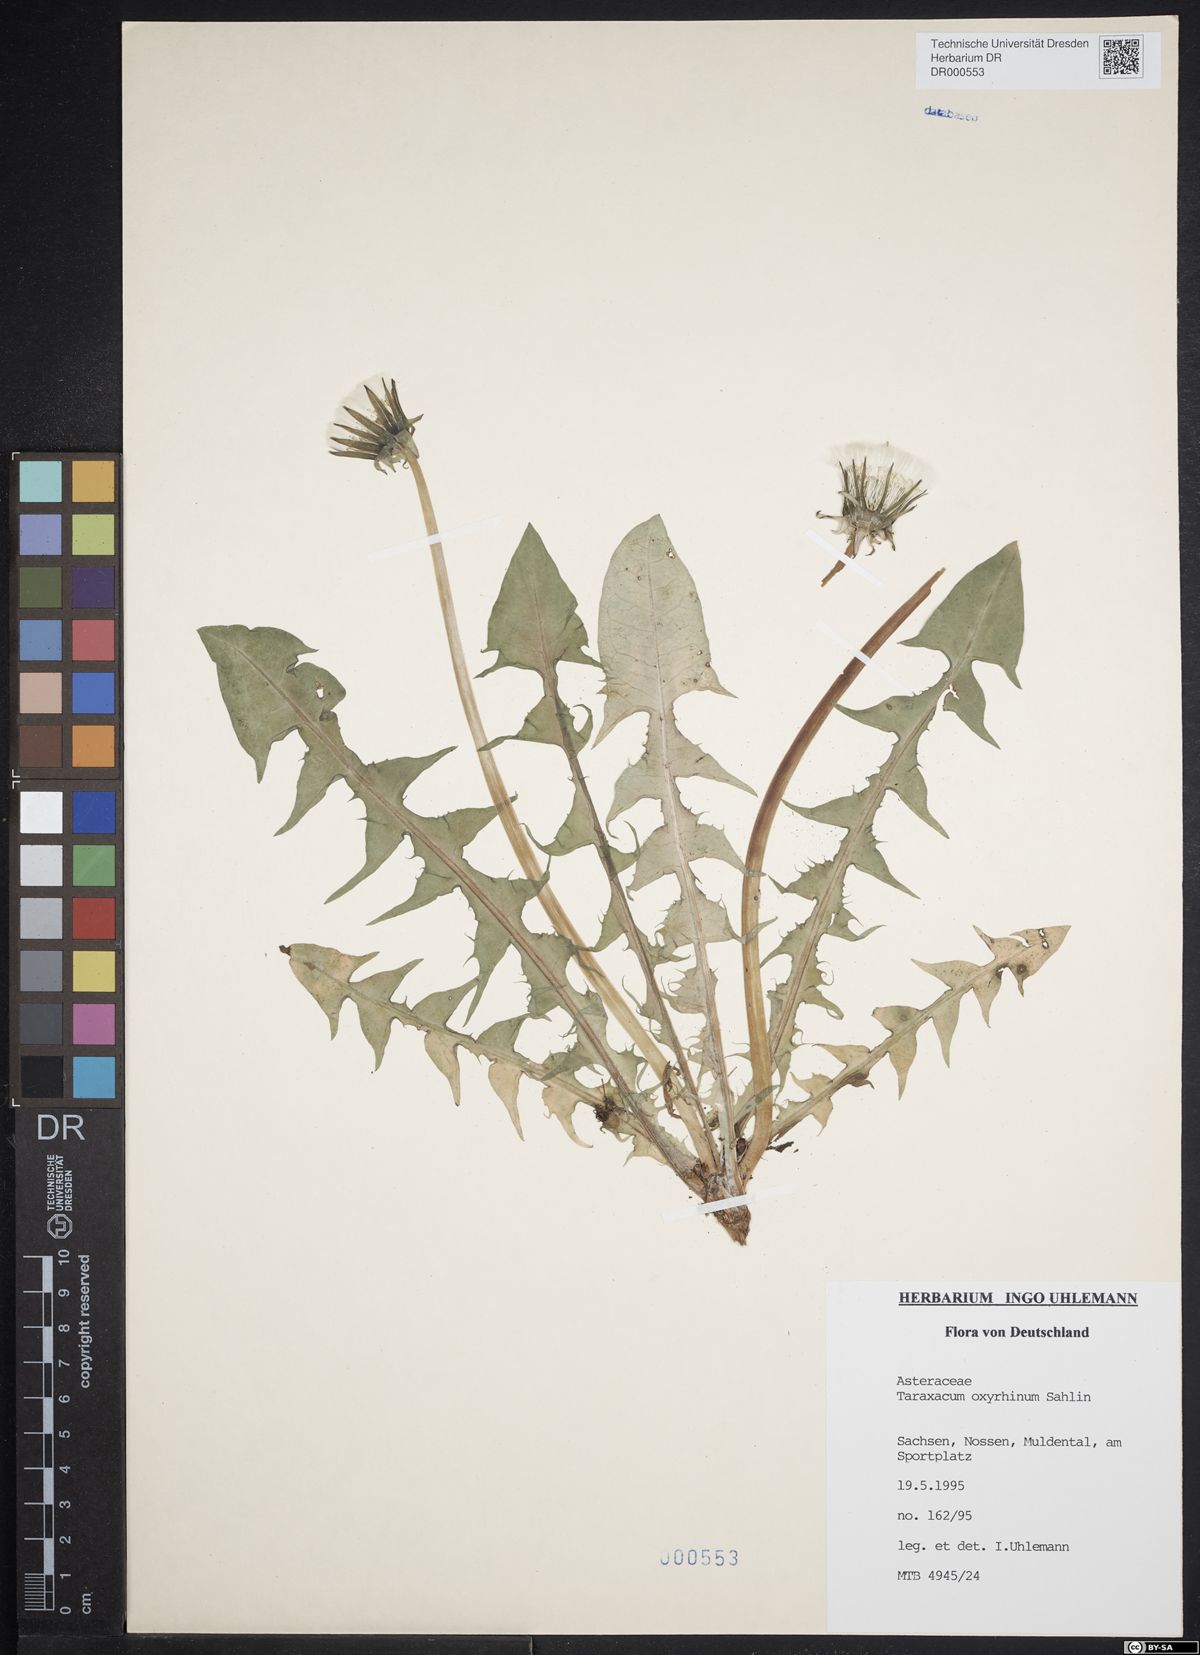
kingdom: Plantae
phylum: Tracheophyta
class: Magnoliopsida
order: Asterales
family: Asteraceae
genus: Taraxacum
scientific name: Taraxacum oxyrrhinum
